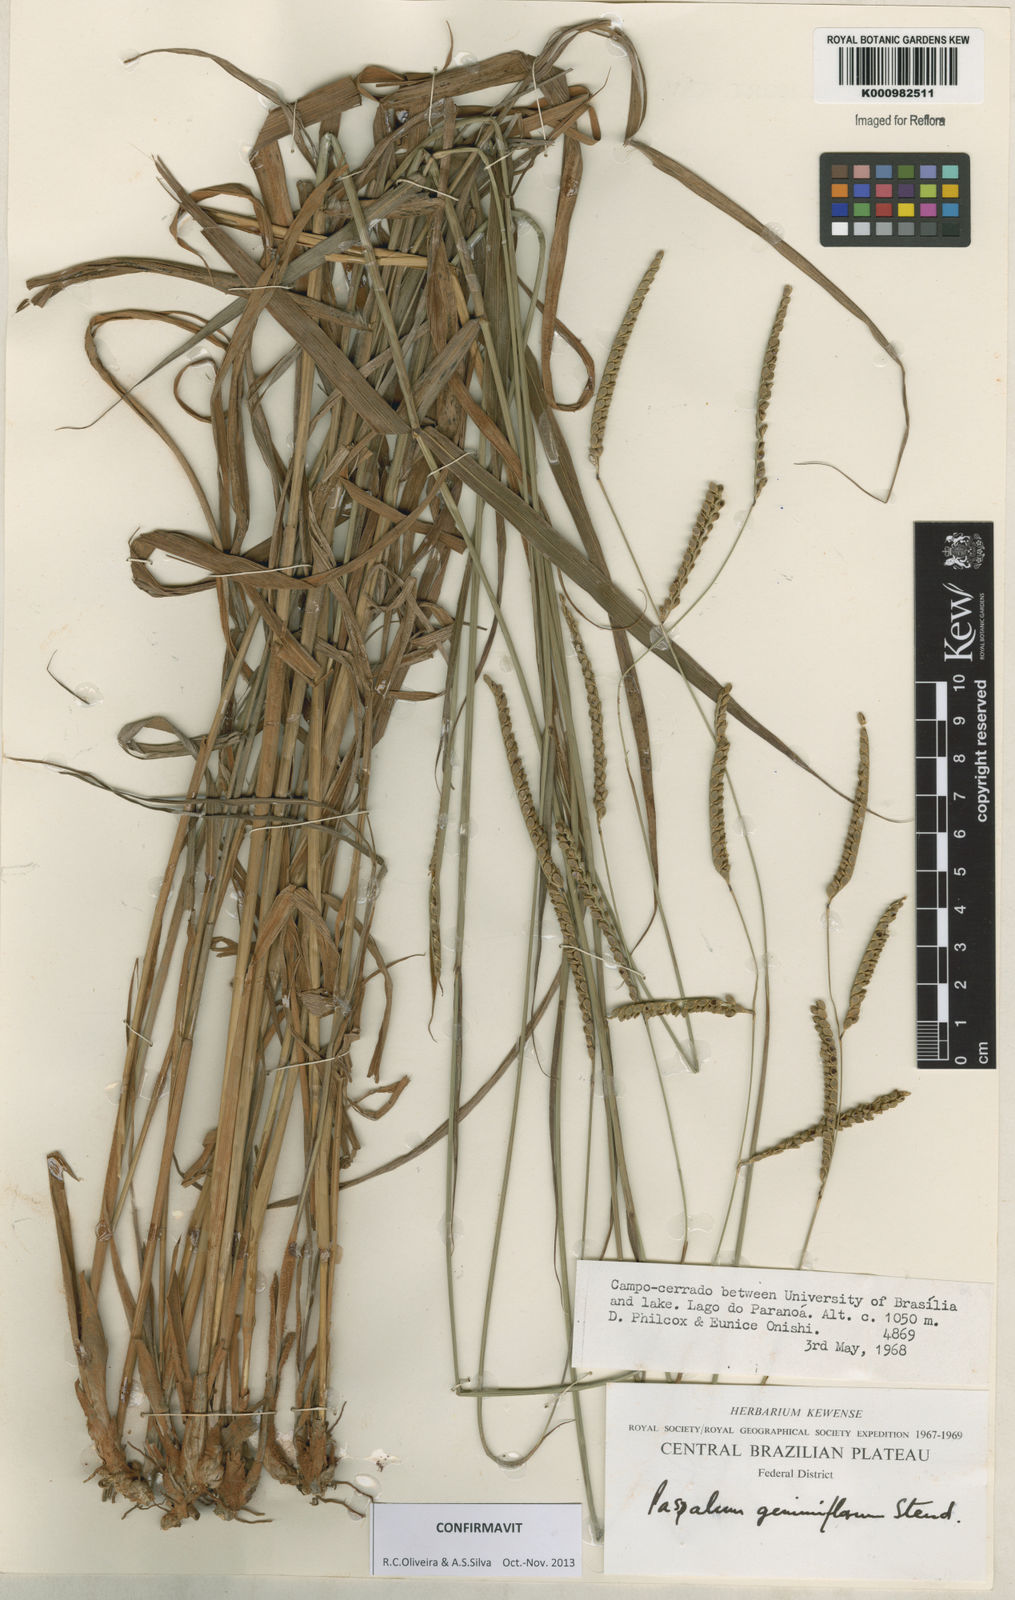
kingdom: Plantae
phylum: Tracheophyta
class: Liliopsida
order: Poales
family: Poaceae
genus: Paspalum
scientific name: Paspalum geminiflorum
